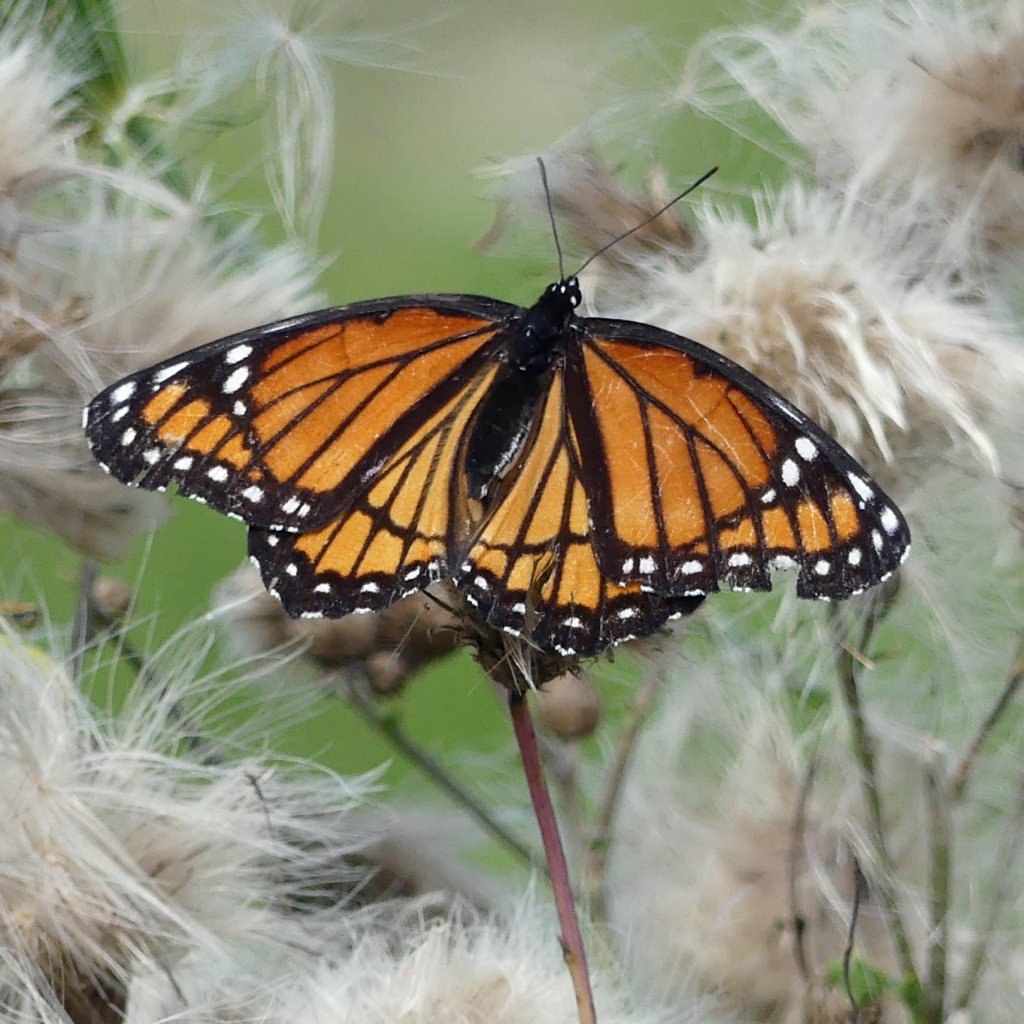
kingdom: Animalia
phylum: Arthropoda
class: Insecta
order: Lepidoptera
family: Nymphalidae
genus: Limenitis
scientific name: Limenitis archippus
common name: Viceroy
